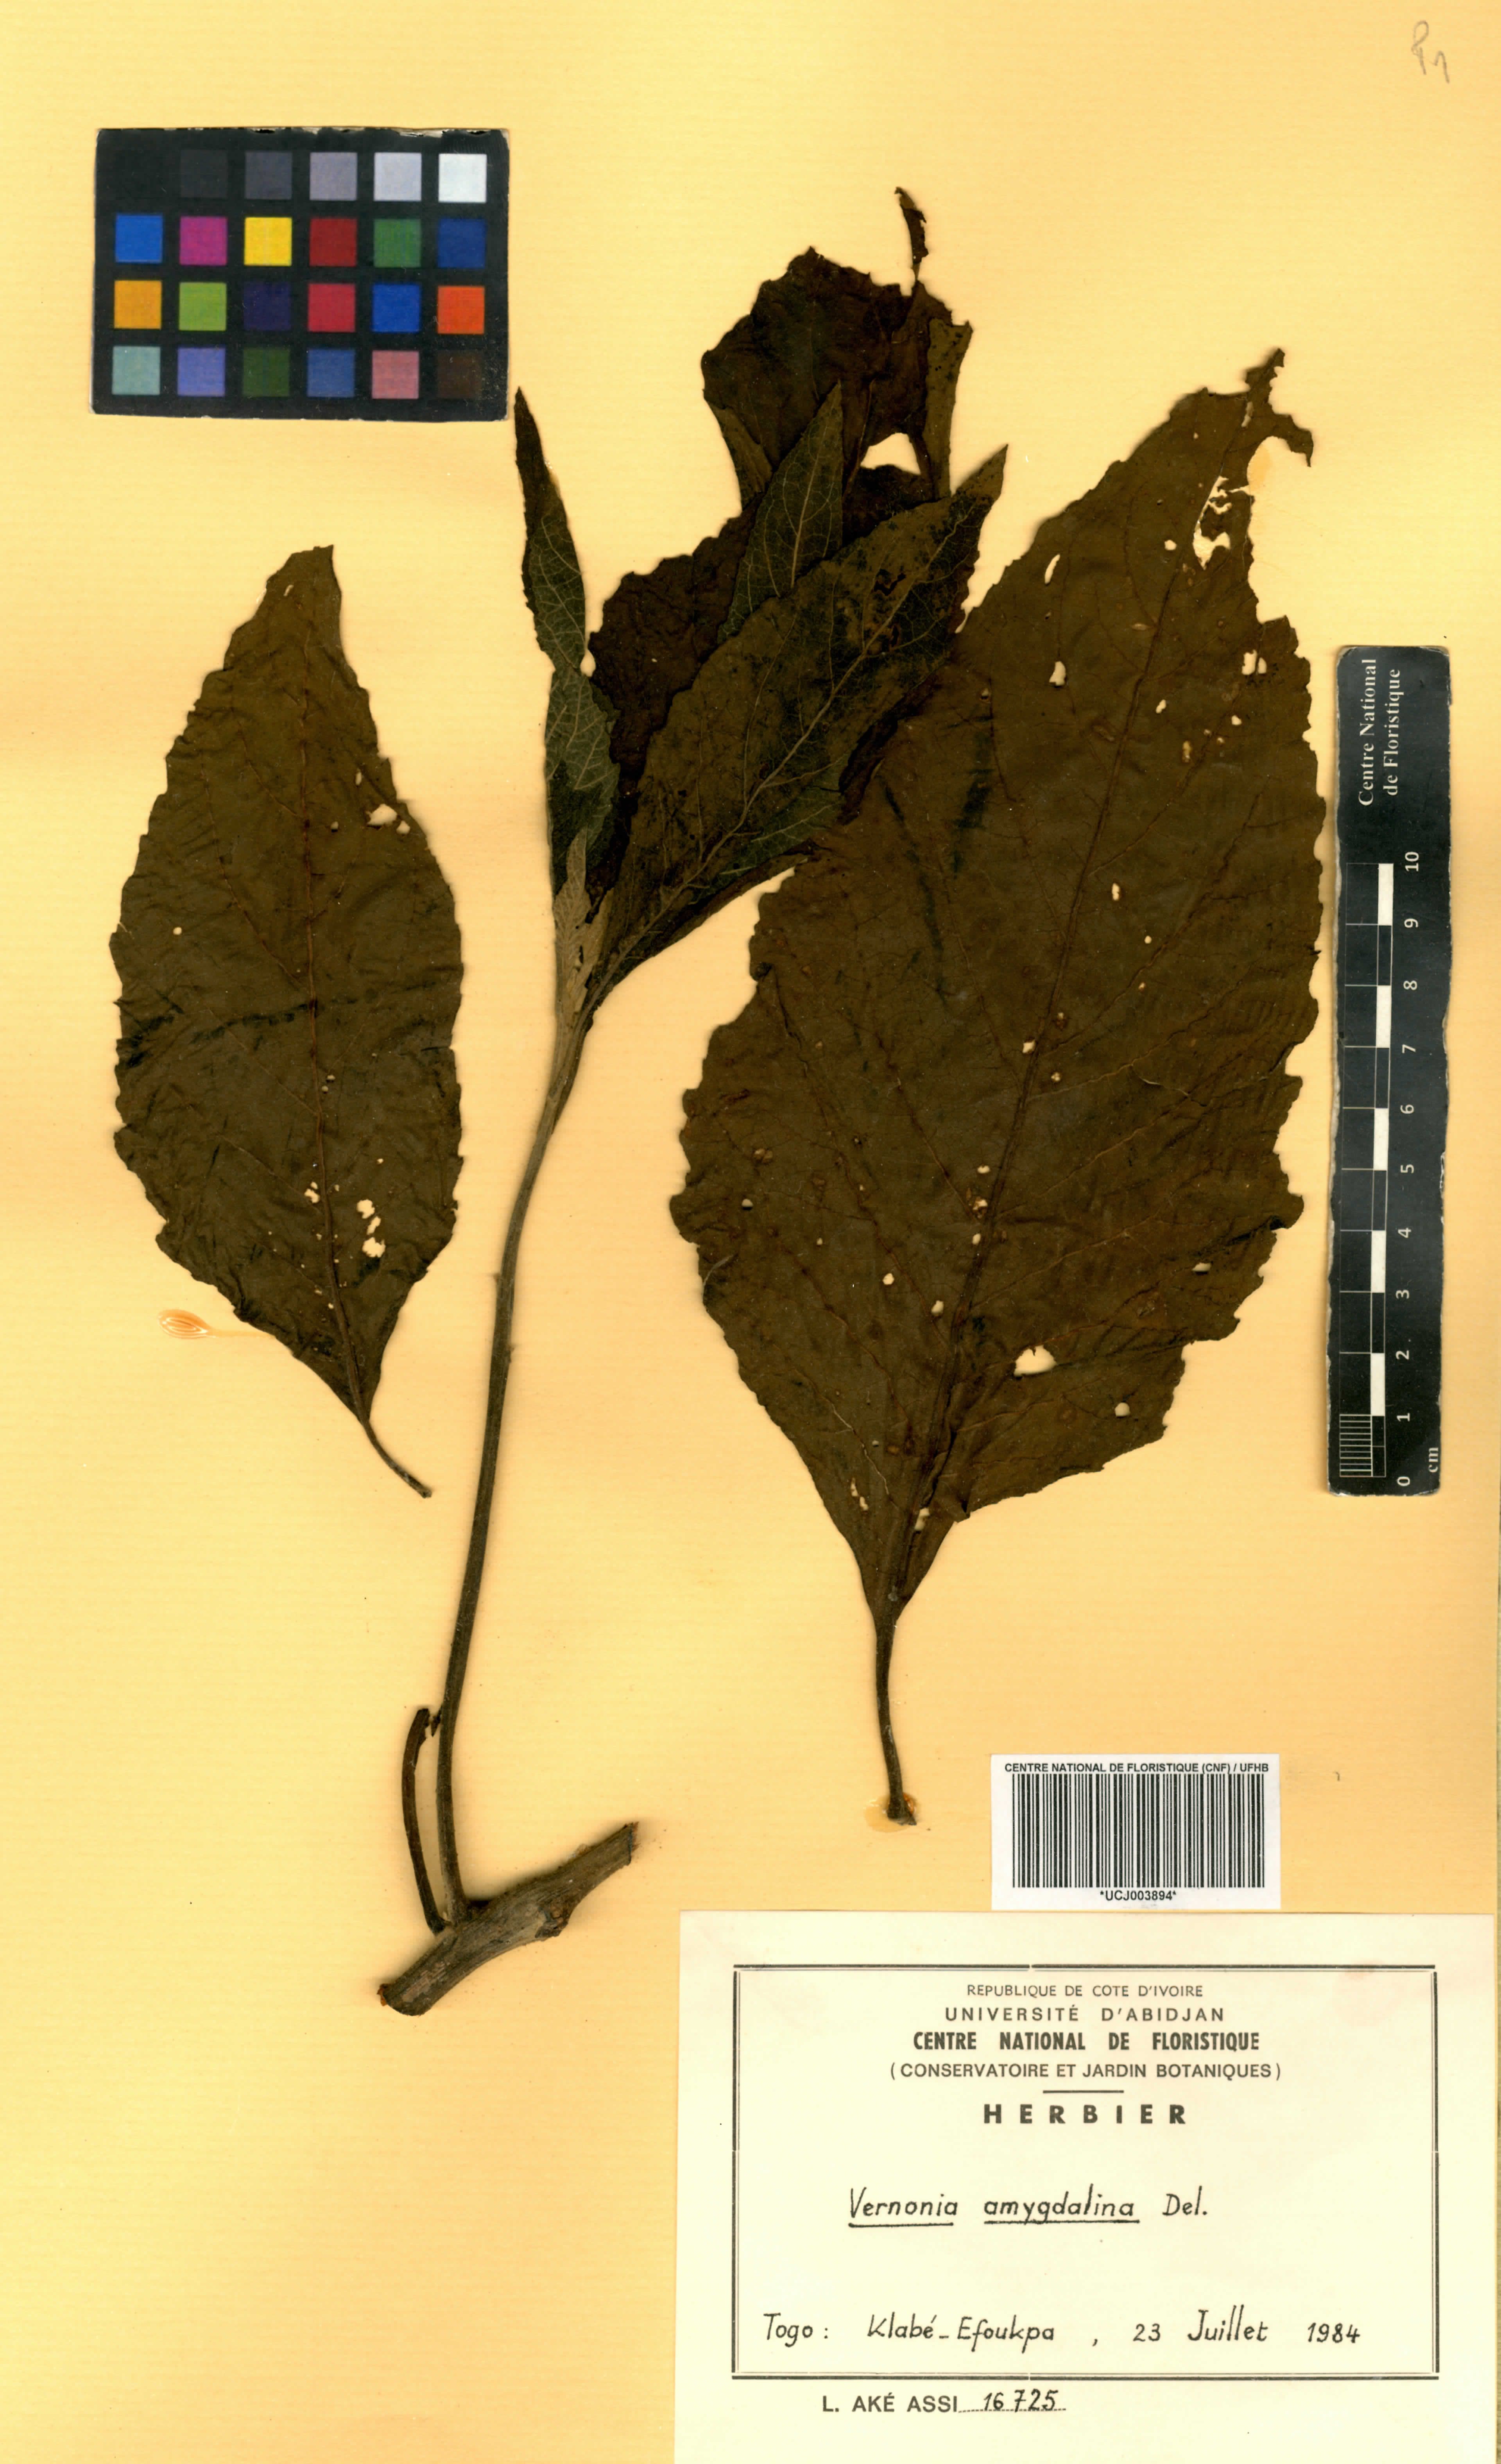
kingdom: Plantae
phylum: Tracheophyta
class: Magnoliopsida
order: Asterales
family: Asteraceae
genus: Gymnanthemum
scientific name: Gymnanthemum amygdalinum
